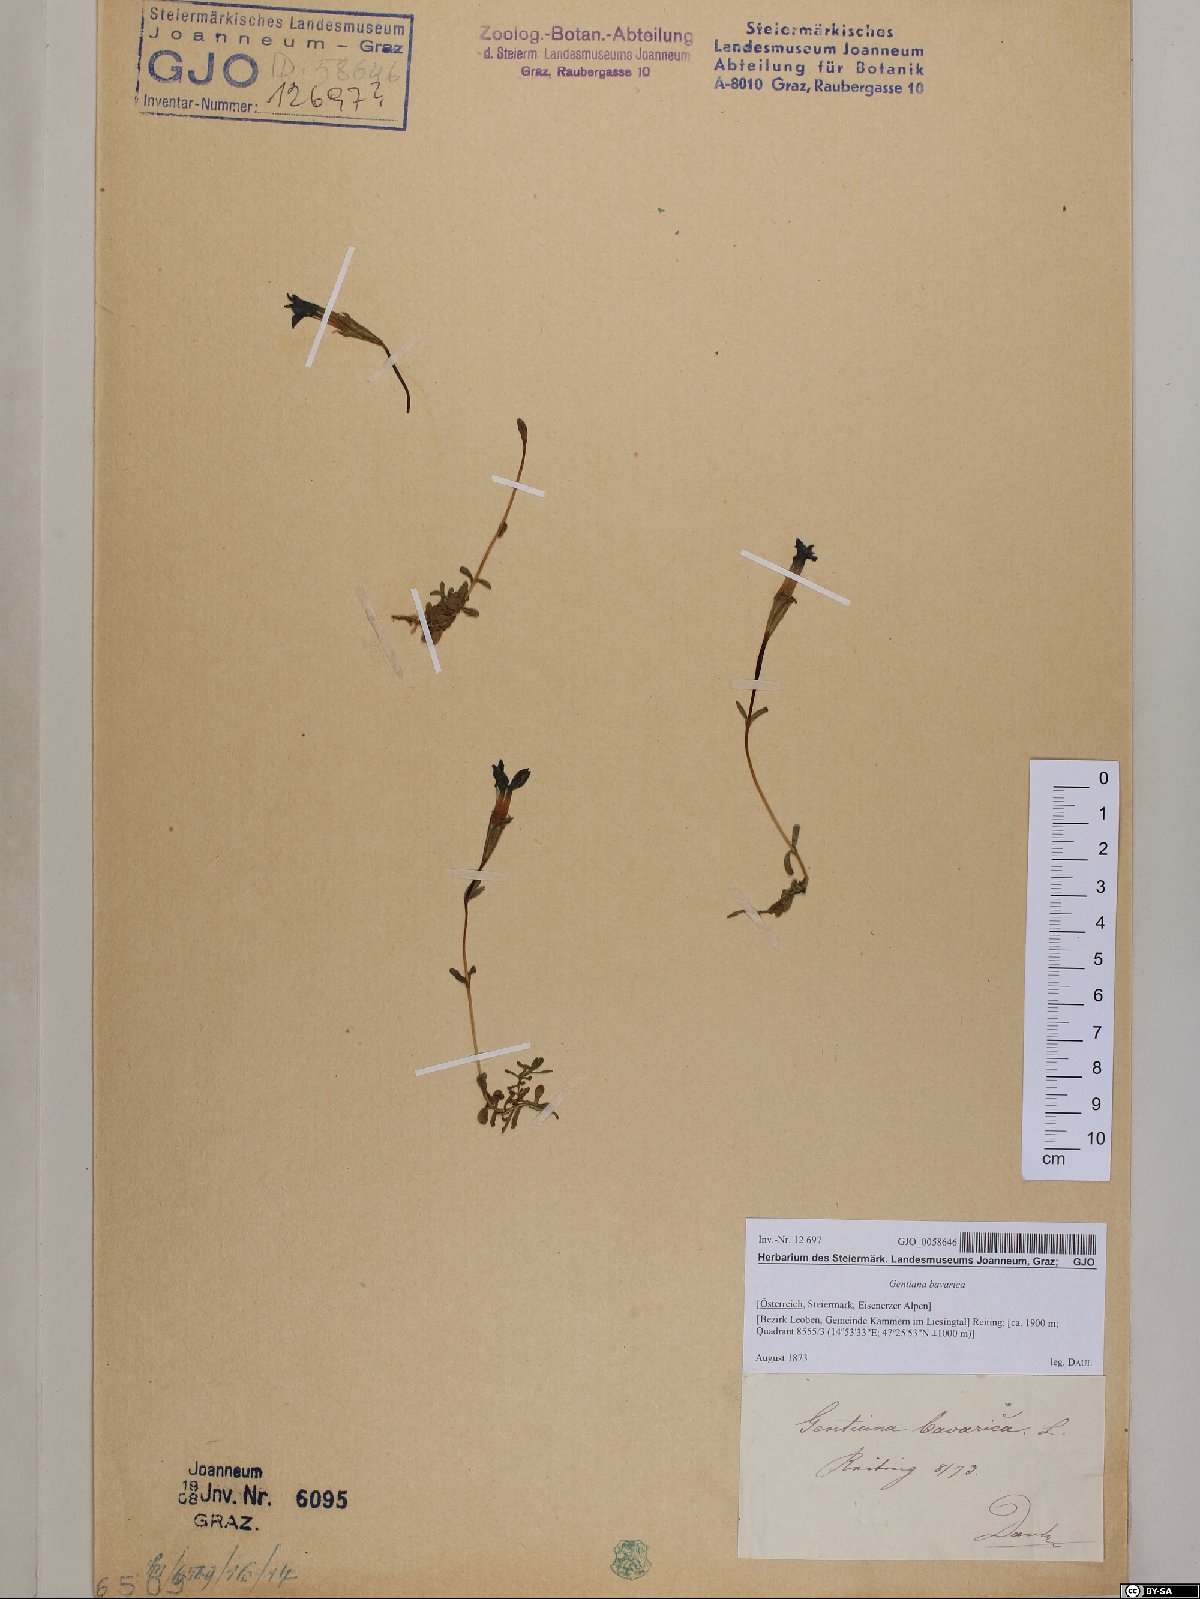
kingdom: Plantae
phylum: Tracheophyta
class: Magnoliopsida
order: Gentianales
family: Gentianaceae
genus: Gentiana
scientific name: Gentiana bavarica
